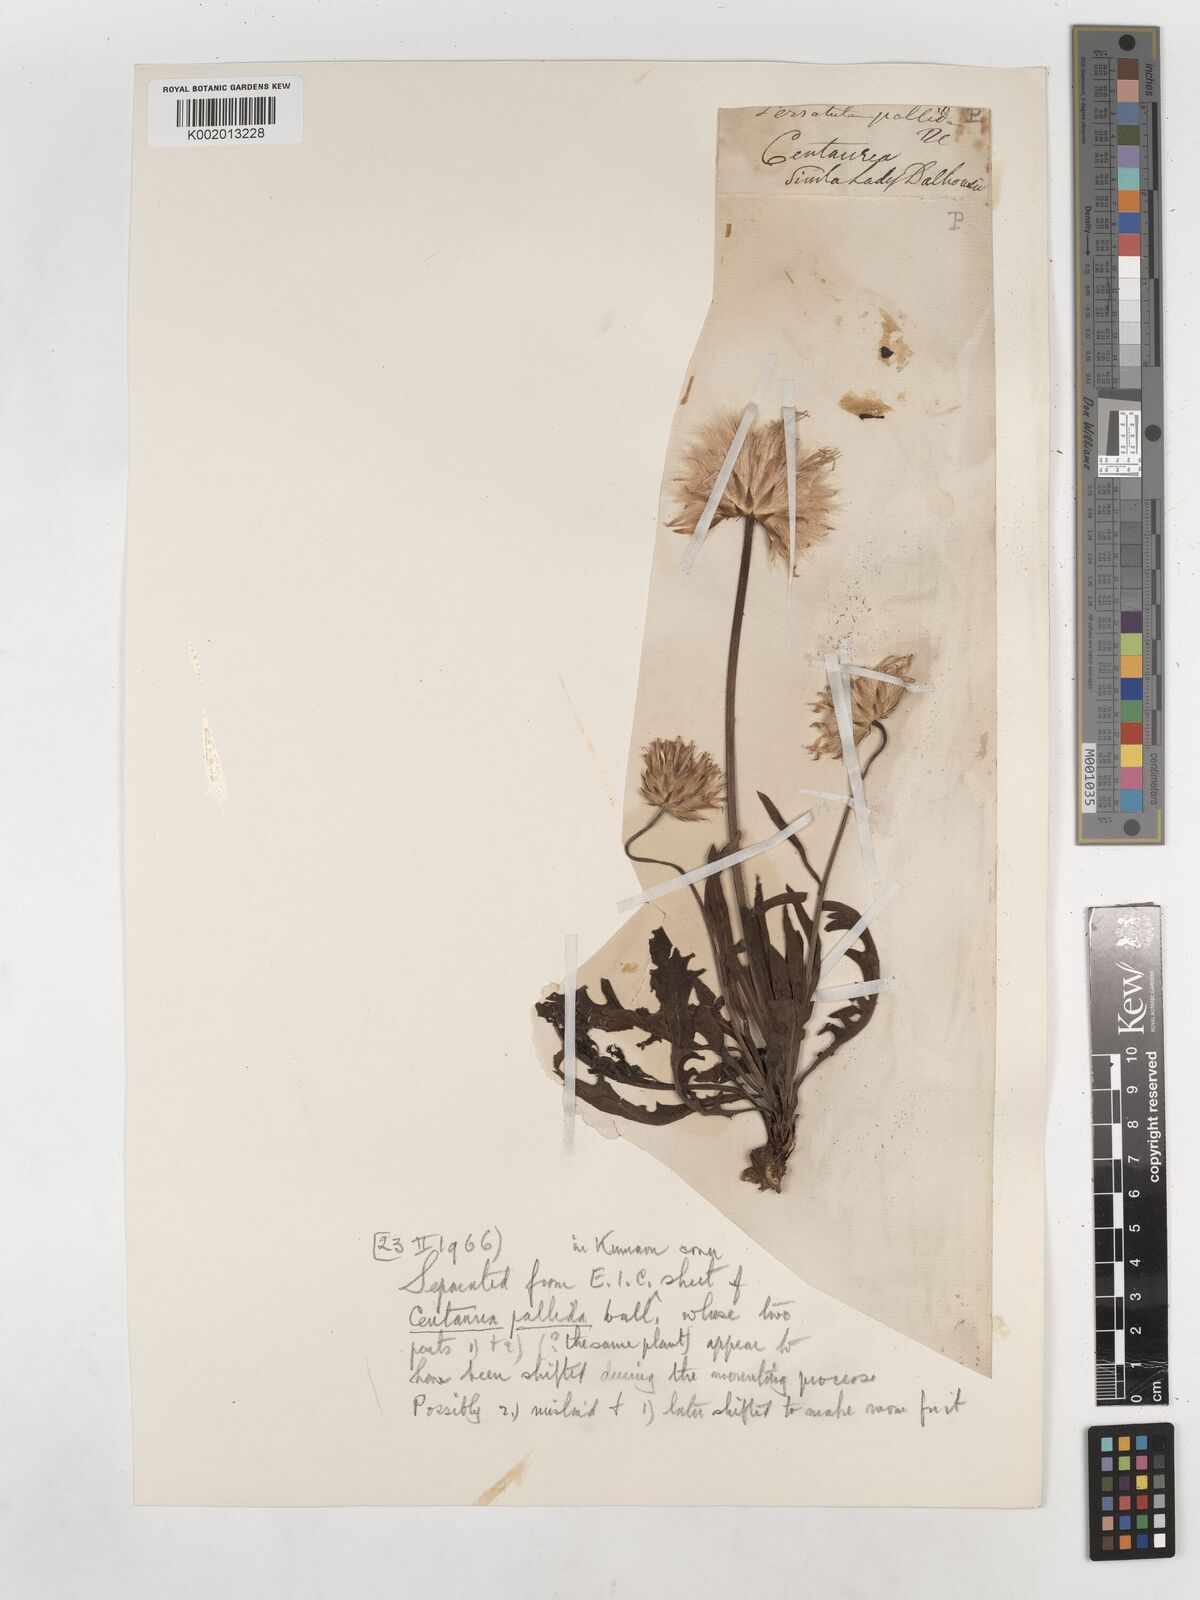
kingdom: Plantae
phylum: Tracheophyta
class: Magnoliopsida
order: Asterales
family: Asteraceae
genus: Klasea
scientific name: Klasea pallida
